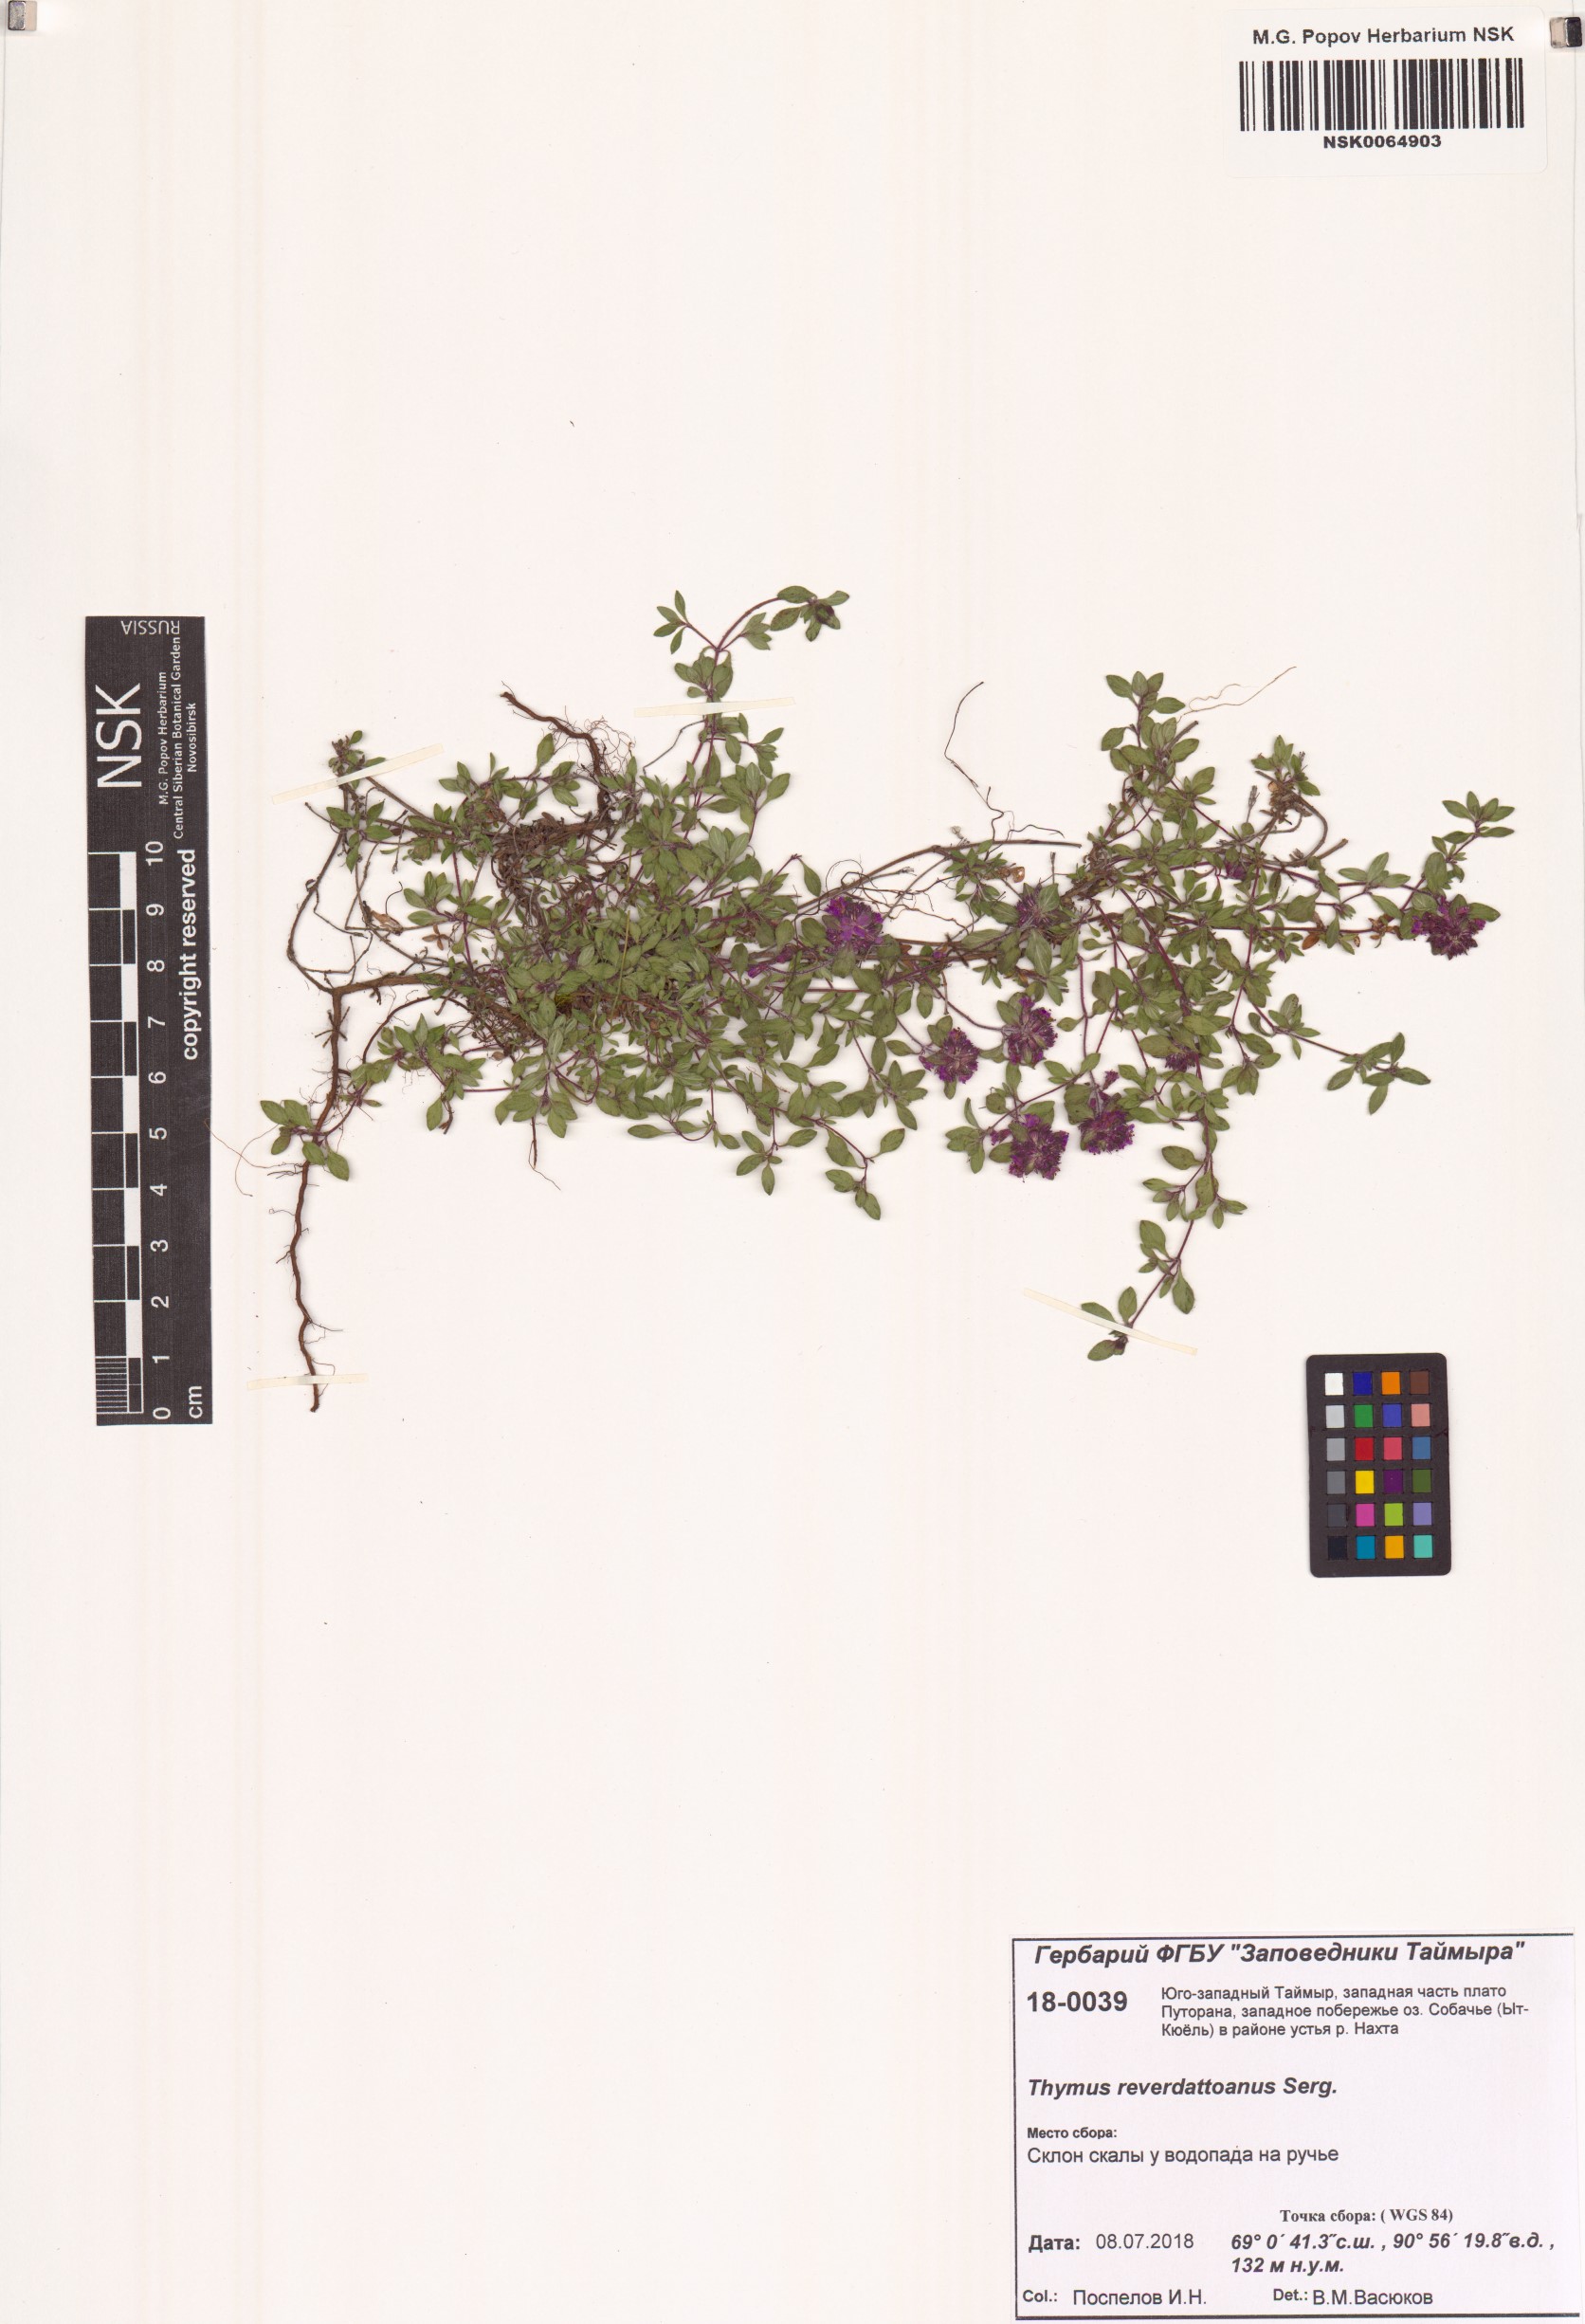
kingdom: Plantae
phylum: Tracheophyta
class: Magnoliopsida
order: Lamiales
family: Lamiaceae
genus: Thymus
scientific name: Thymus reverdattoanus
